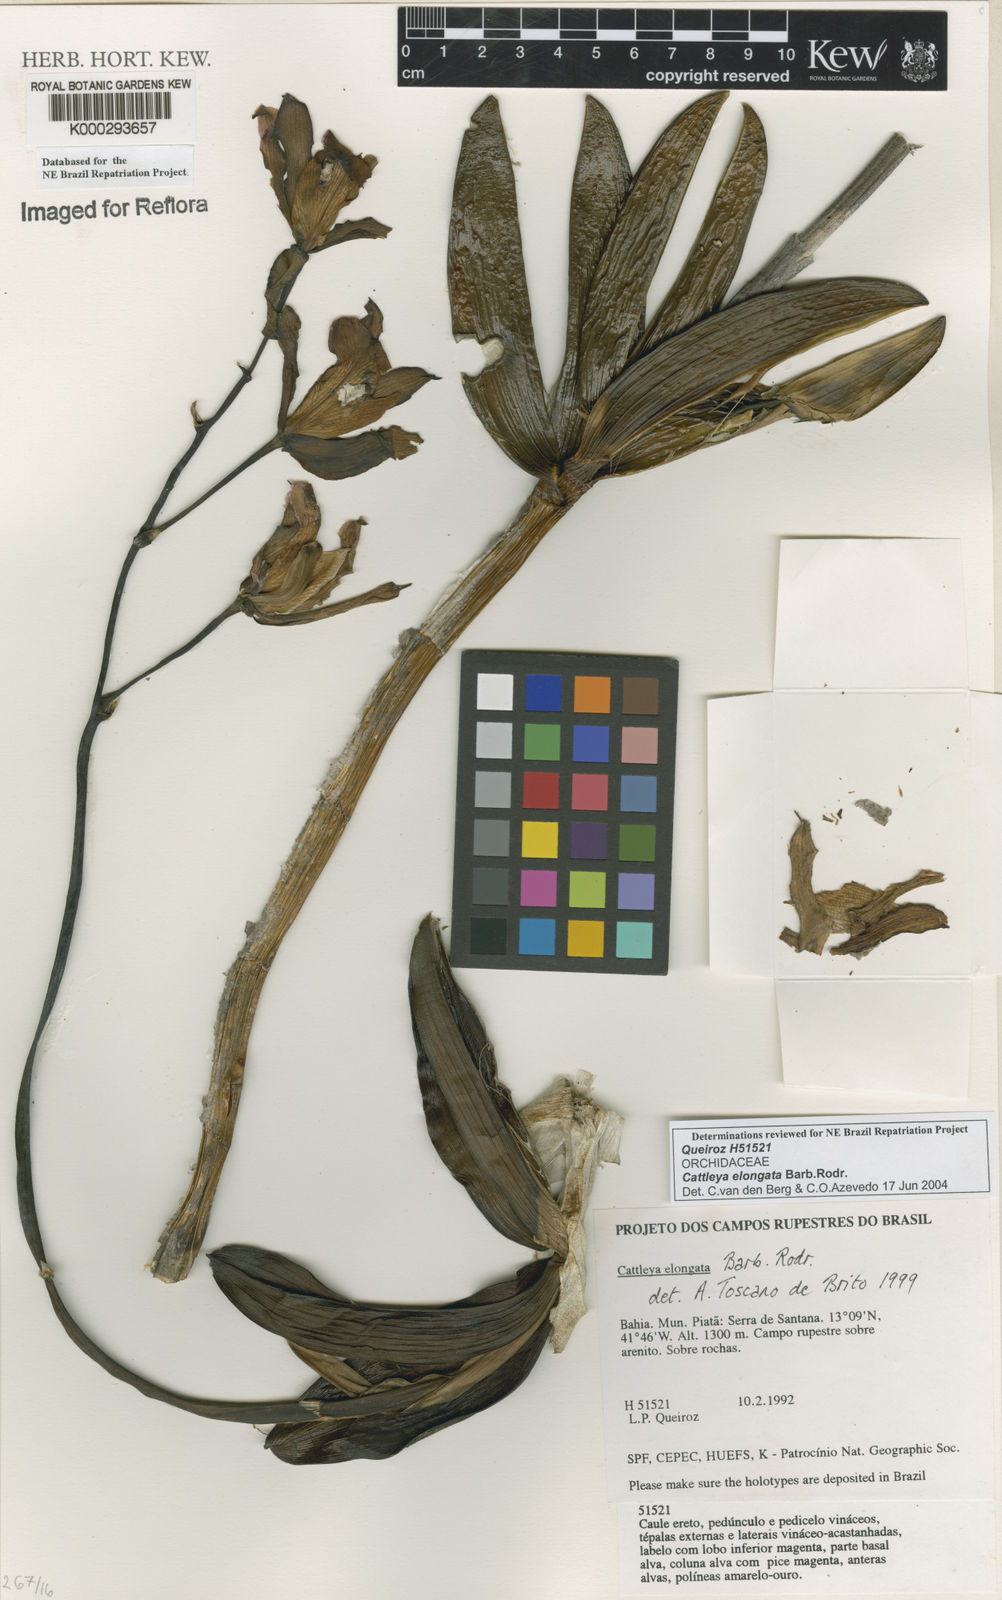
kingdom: Plantae
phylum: Tracheophyta
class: Liliopsida
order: Asparagales
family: Orchidaceae
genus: Cattleya
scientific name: Cattleya elongata
